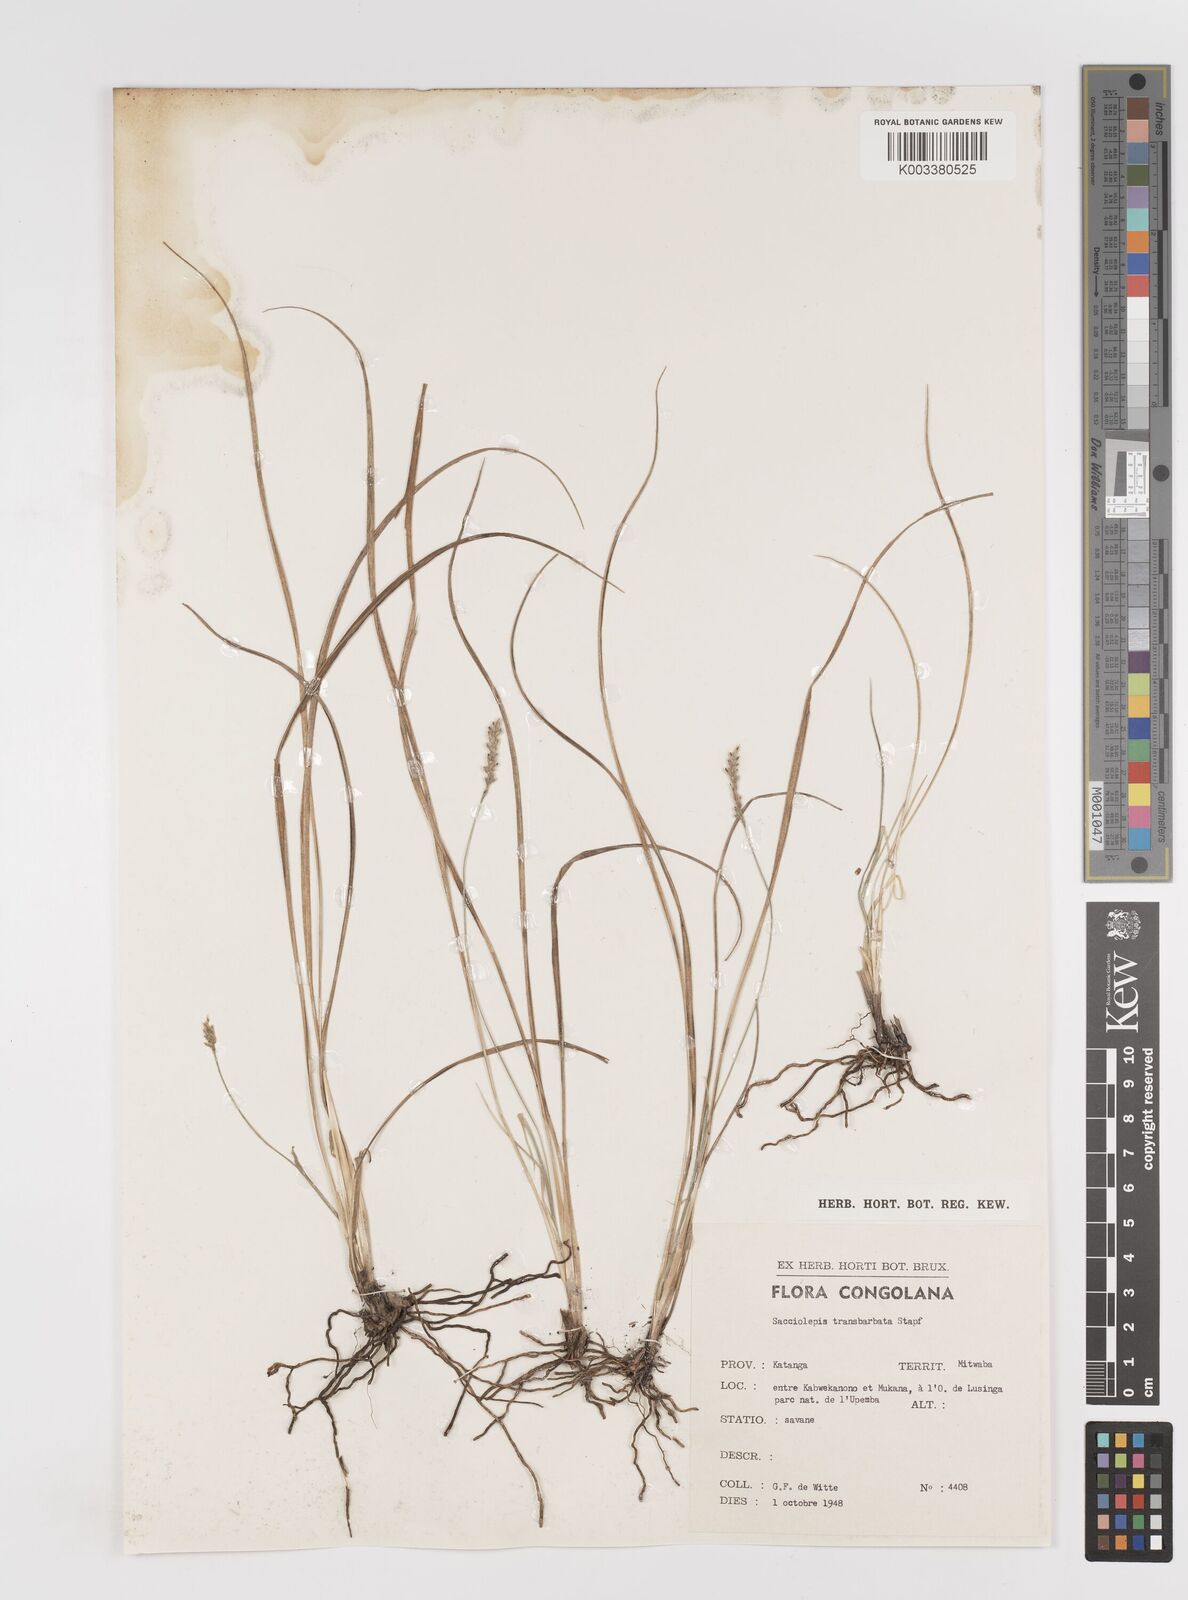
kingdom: Plantae
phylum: Tracheophyta
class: Liliopsida
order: Poales
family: Poaceae
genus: Sacciolepis
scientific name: Sacciolepis transbarbata
